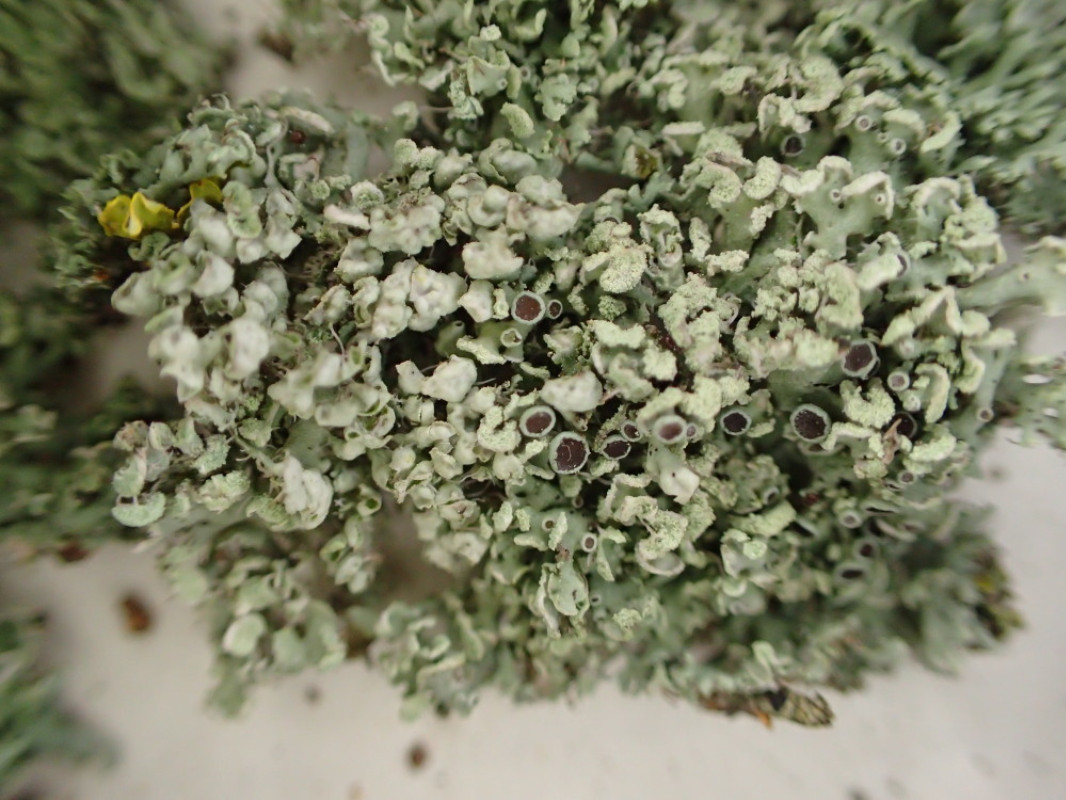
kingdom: Fungi
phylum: Ascomycota
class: Lecanoromycetes
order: Caliciales
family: Physciaceae
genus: Physcia
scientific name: Physcia adscendens
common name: hætte-rosetlav
